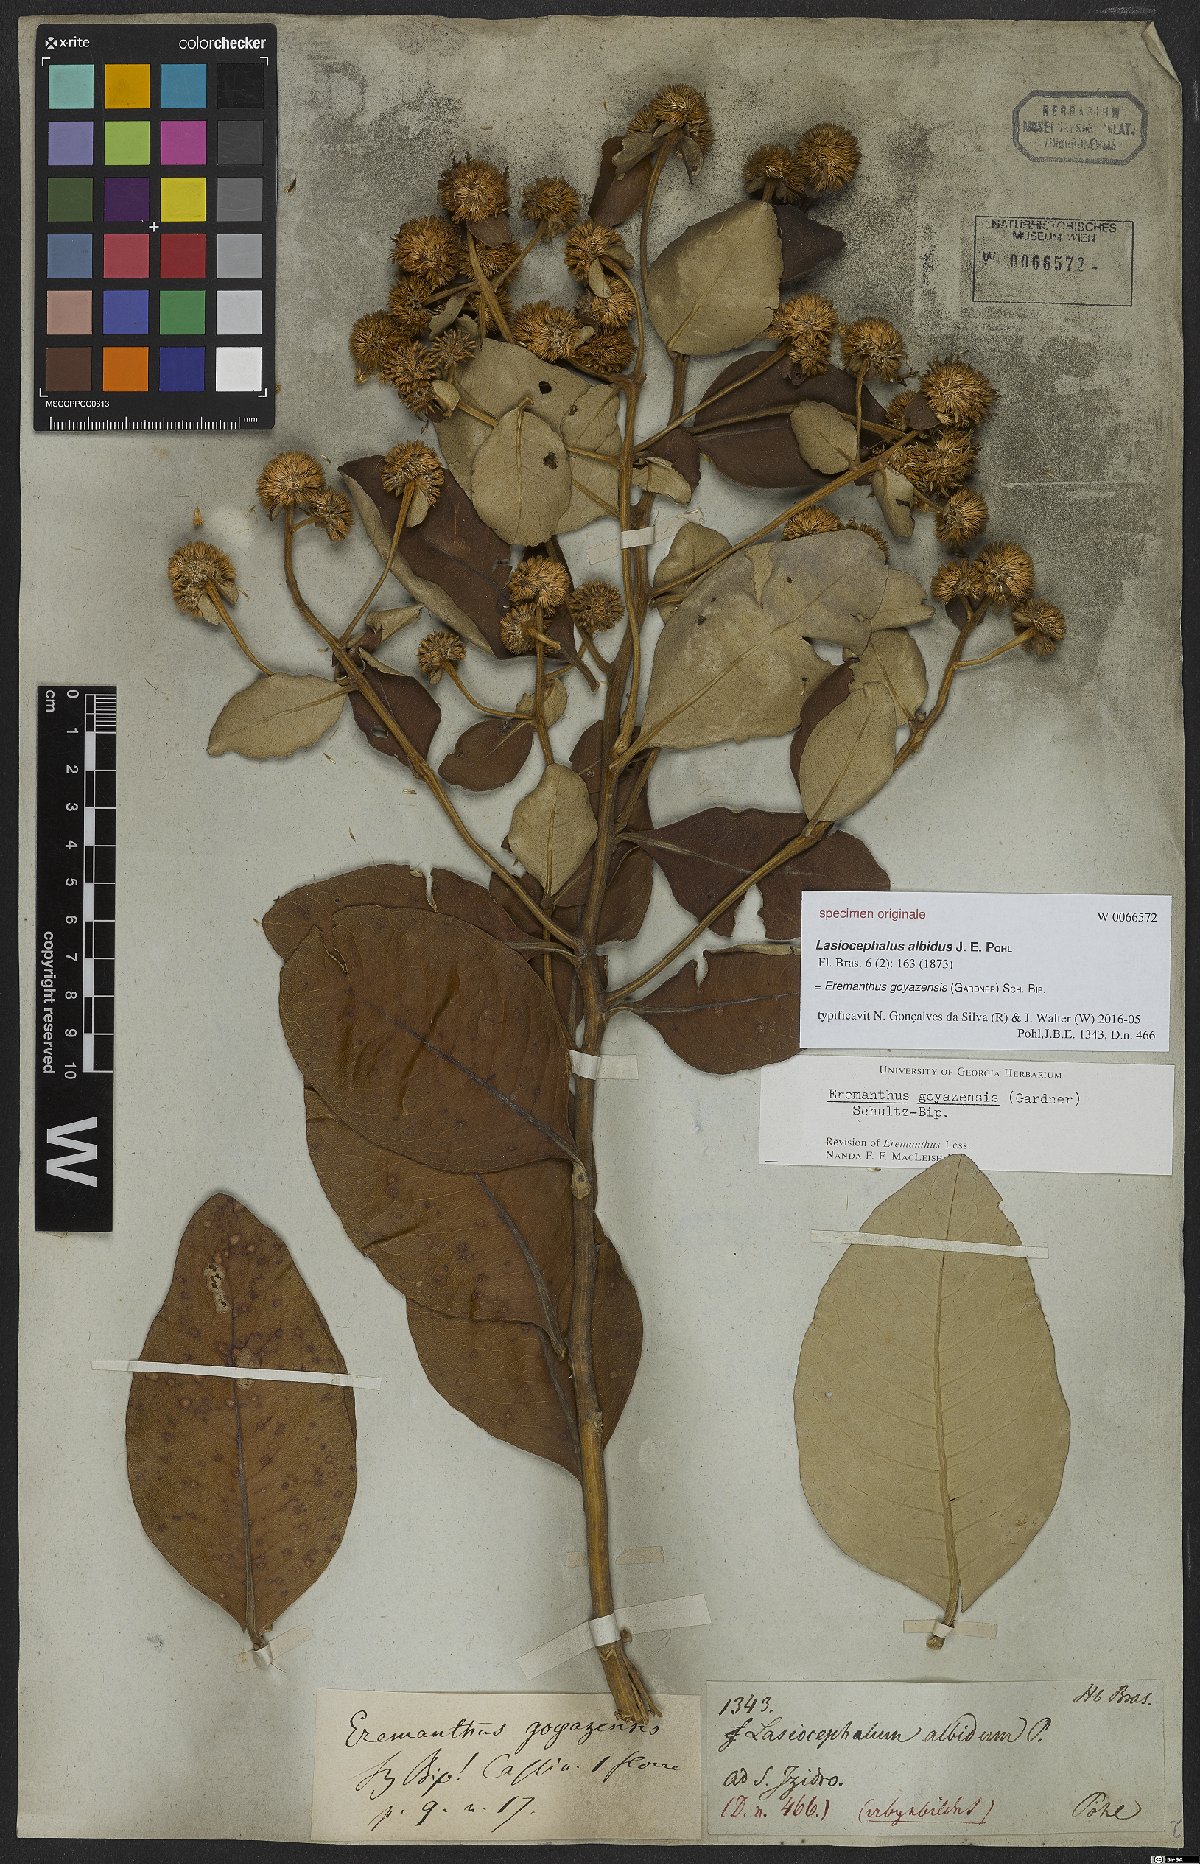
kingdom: Plantae
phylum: Tracheophyta
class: Magnoliopsida
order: Asterales
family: Asteraceae
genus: Eremanthus
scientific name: Eremanthus goyazensis
